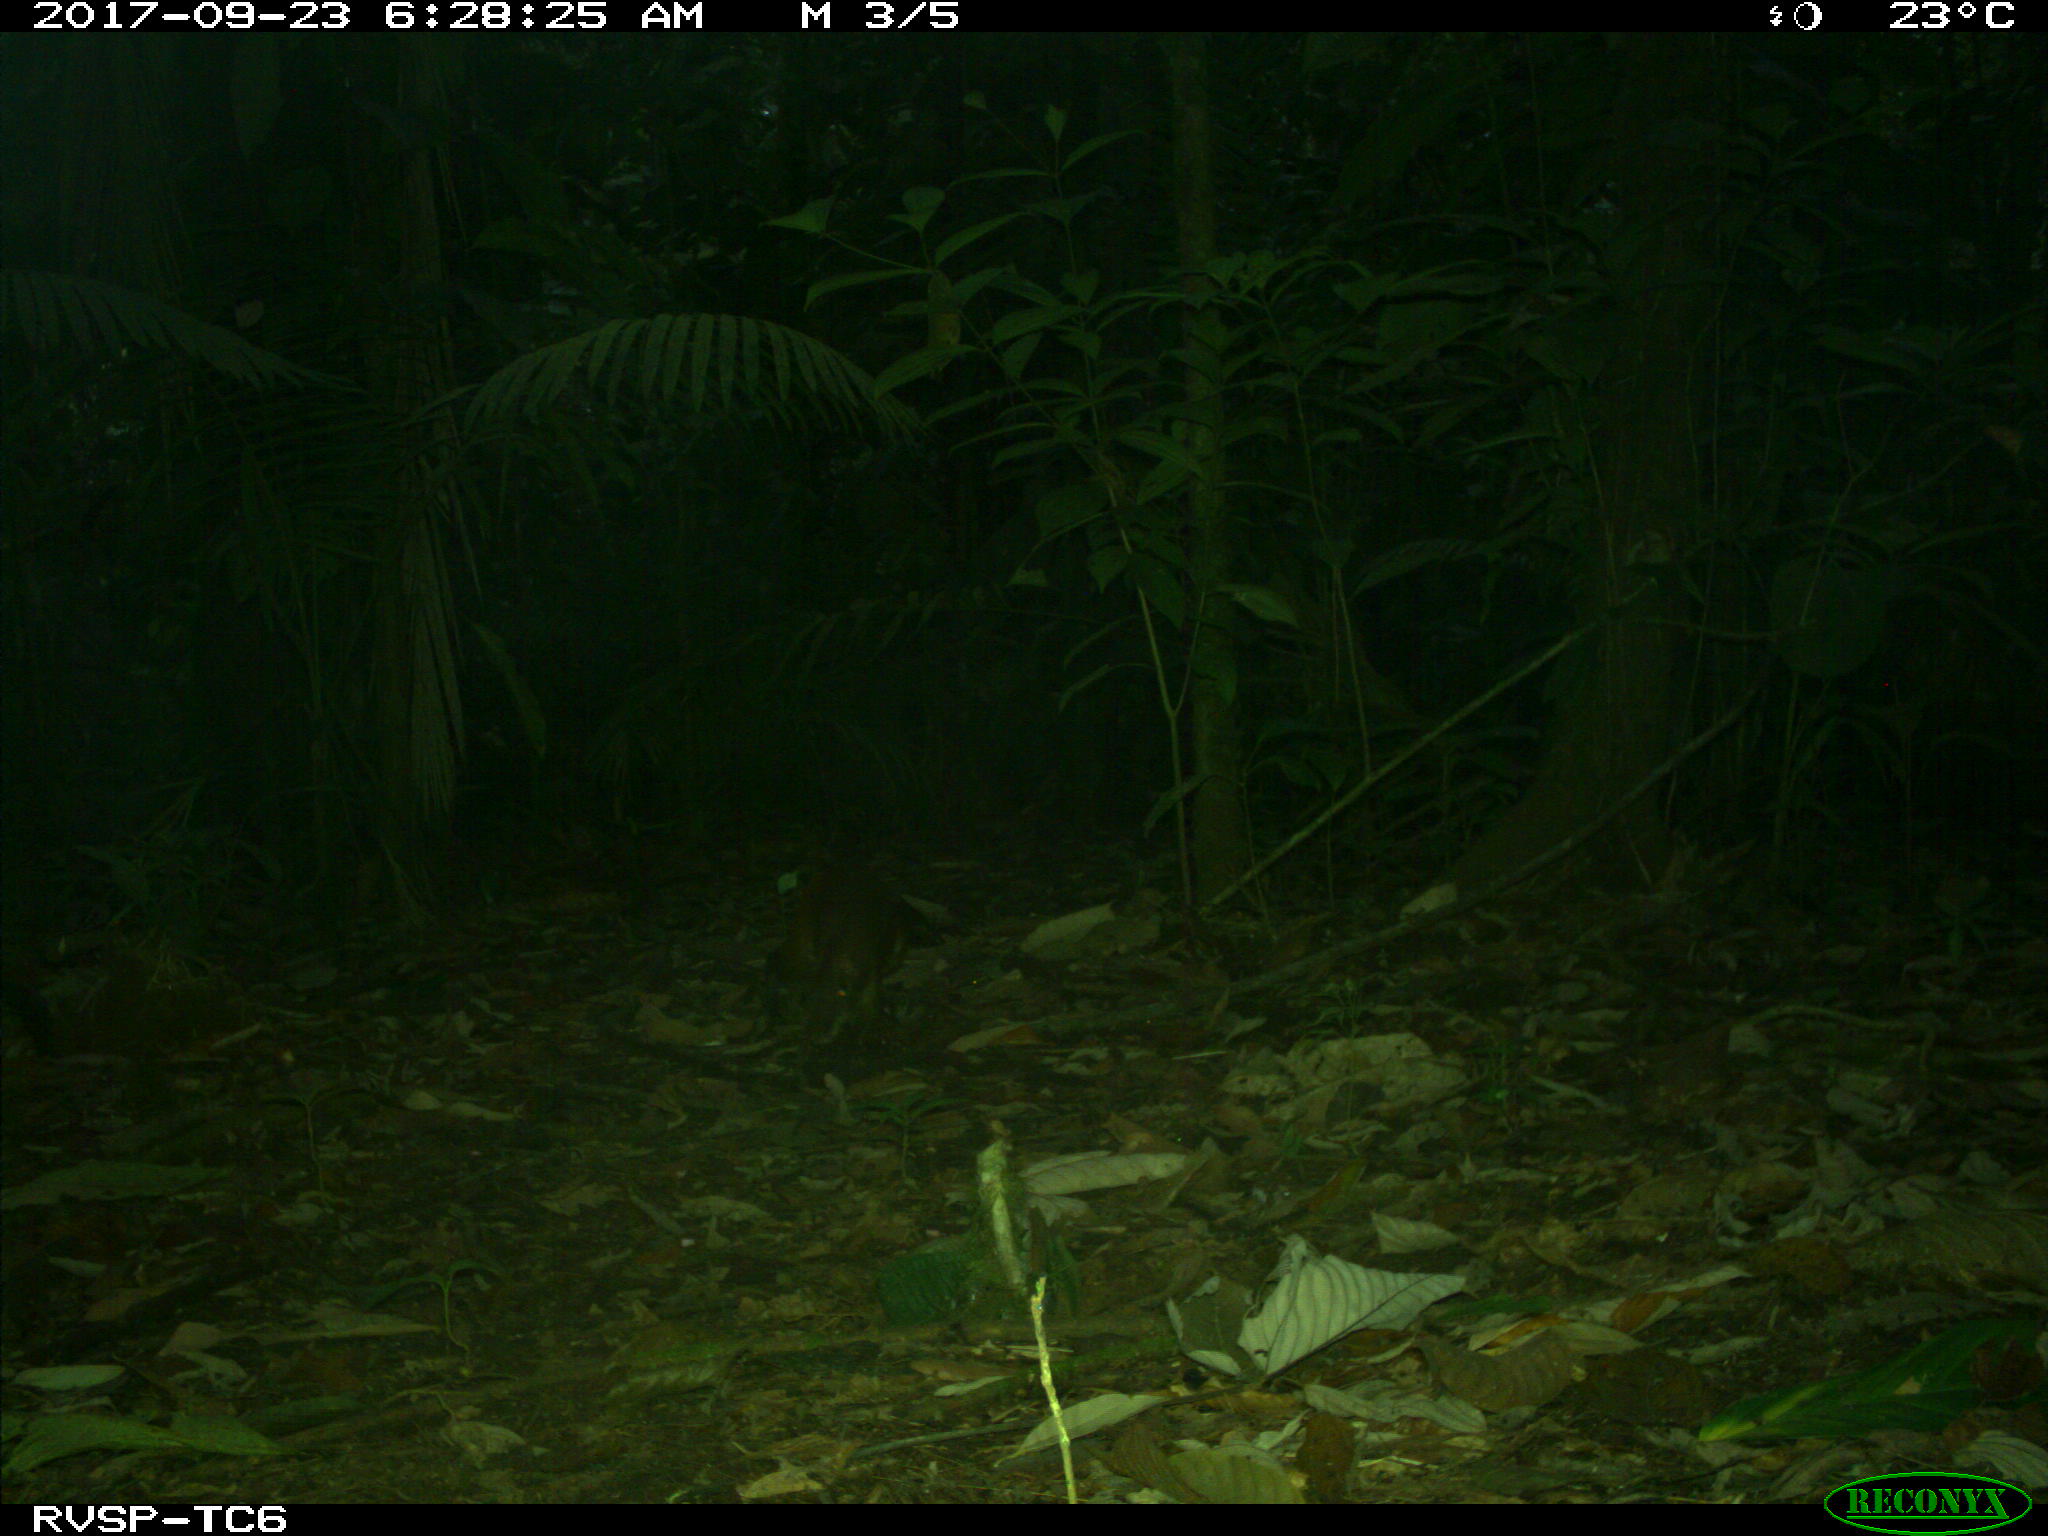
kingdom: Animalia
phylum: Chordata
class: Mammalia
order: Rodentia
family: Dasyproctidae
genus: Dasyprocta
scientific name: Dasyprocta punctata
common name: Central american agouti
